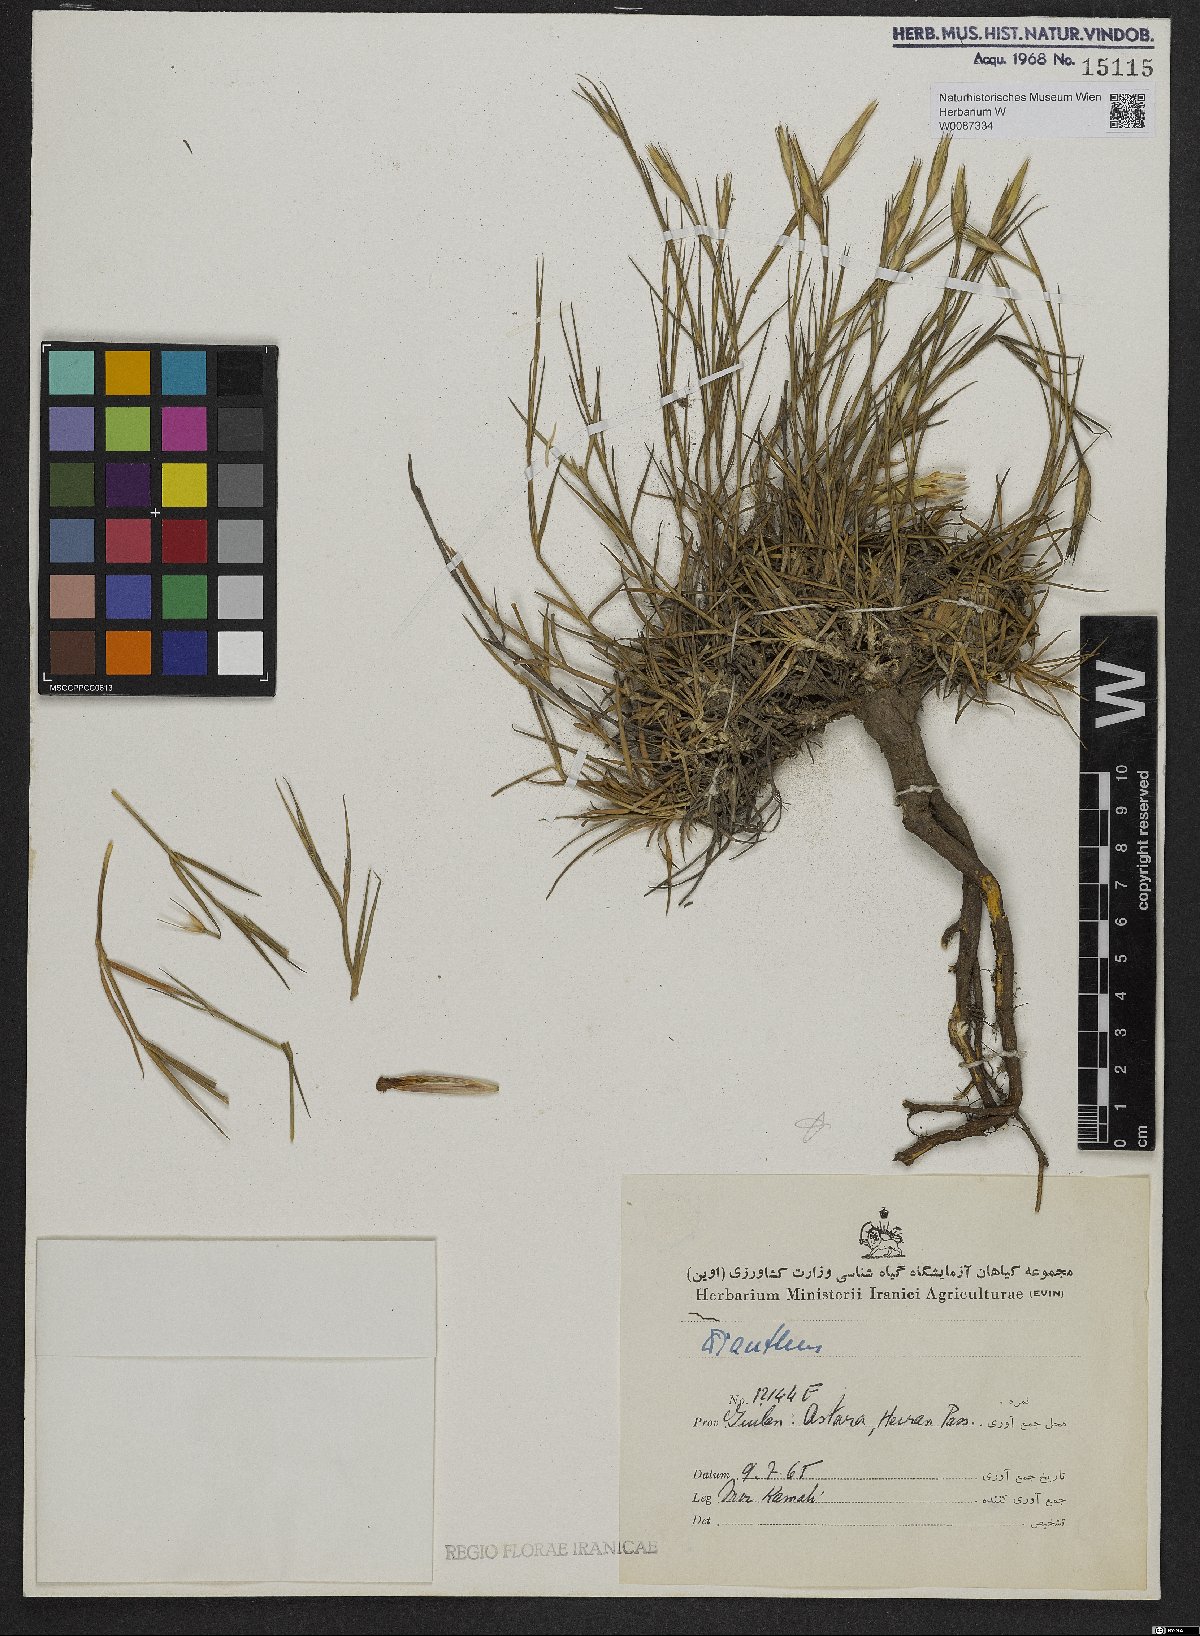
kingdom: Plantae
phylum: Tracheophyta
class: Magnoliopsida
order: Caryophyllales
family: Caryophyllaceae
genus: Dianthus
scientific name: Dianthus
